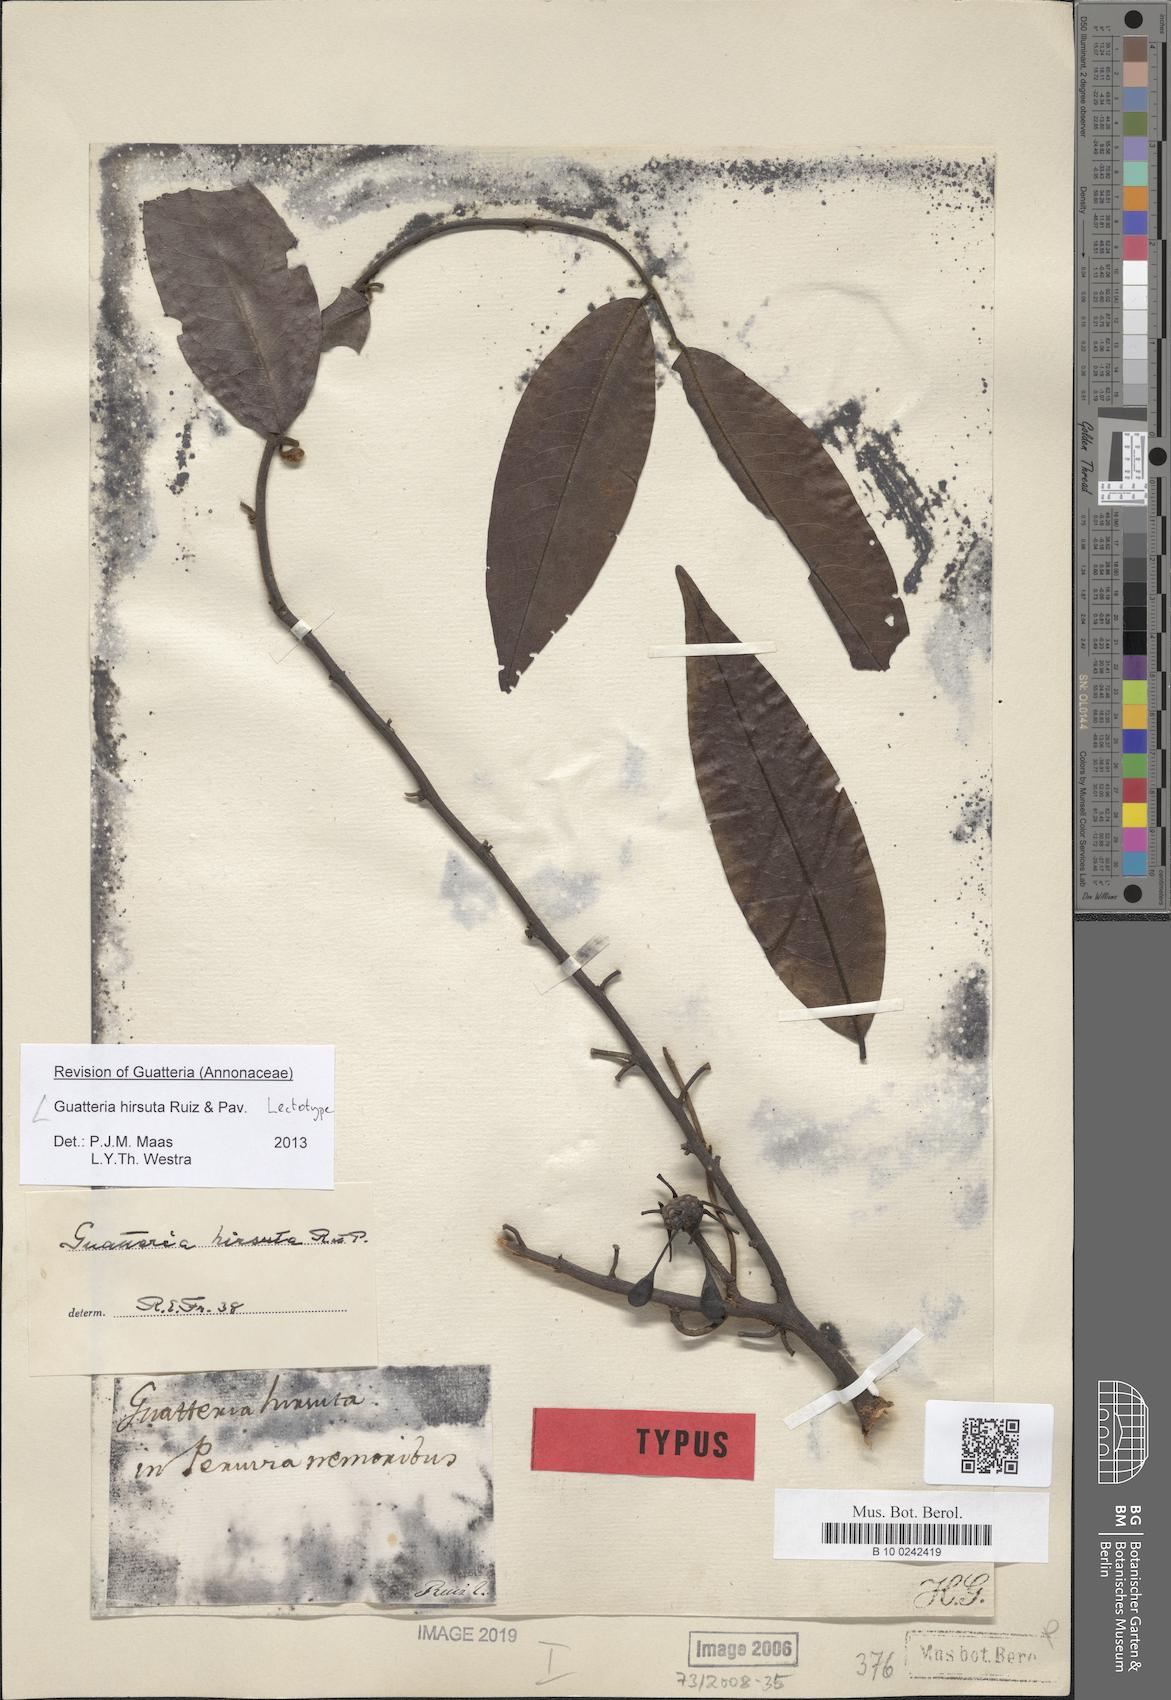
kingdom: Plantae
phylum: Tracheophyta
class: Magnoliopsida
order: Magnoliales
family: Annonaceae
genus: Guatteria
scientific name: Guatteria hirsuta
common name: Laurel
